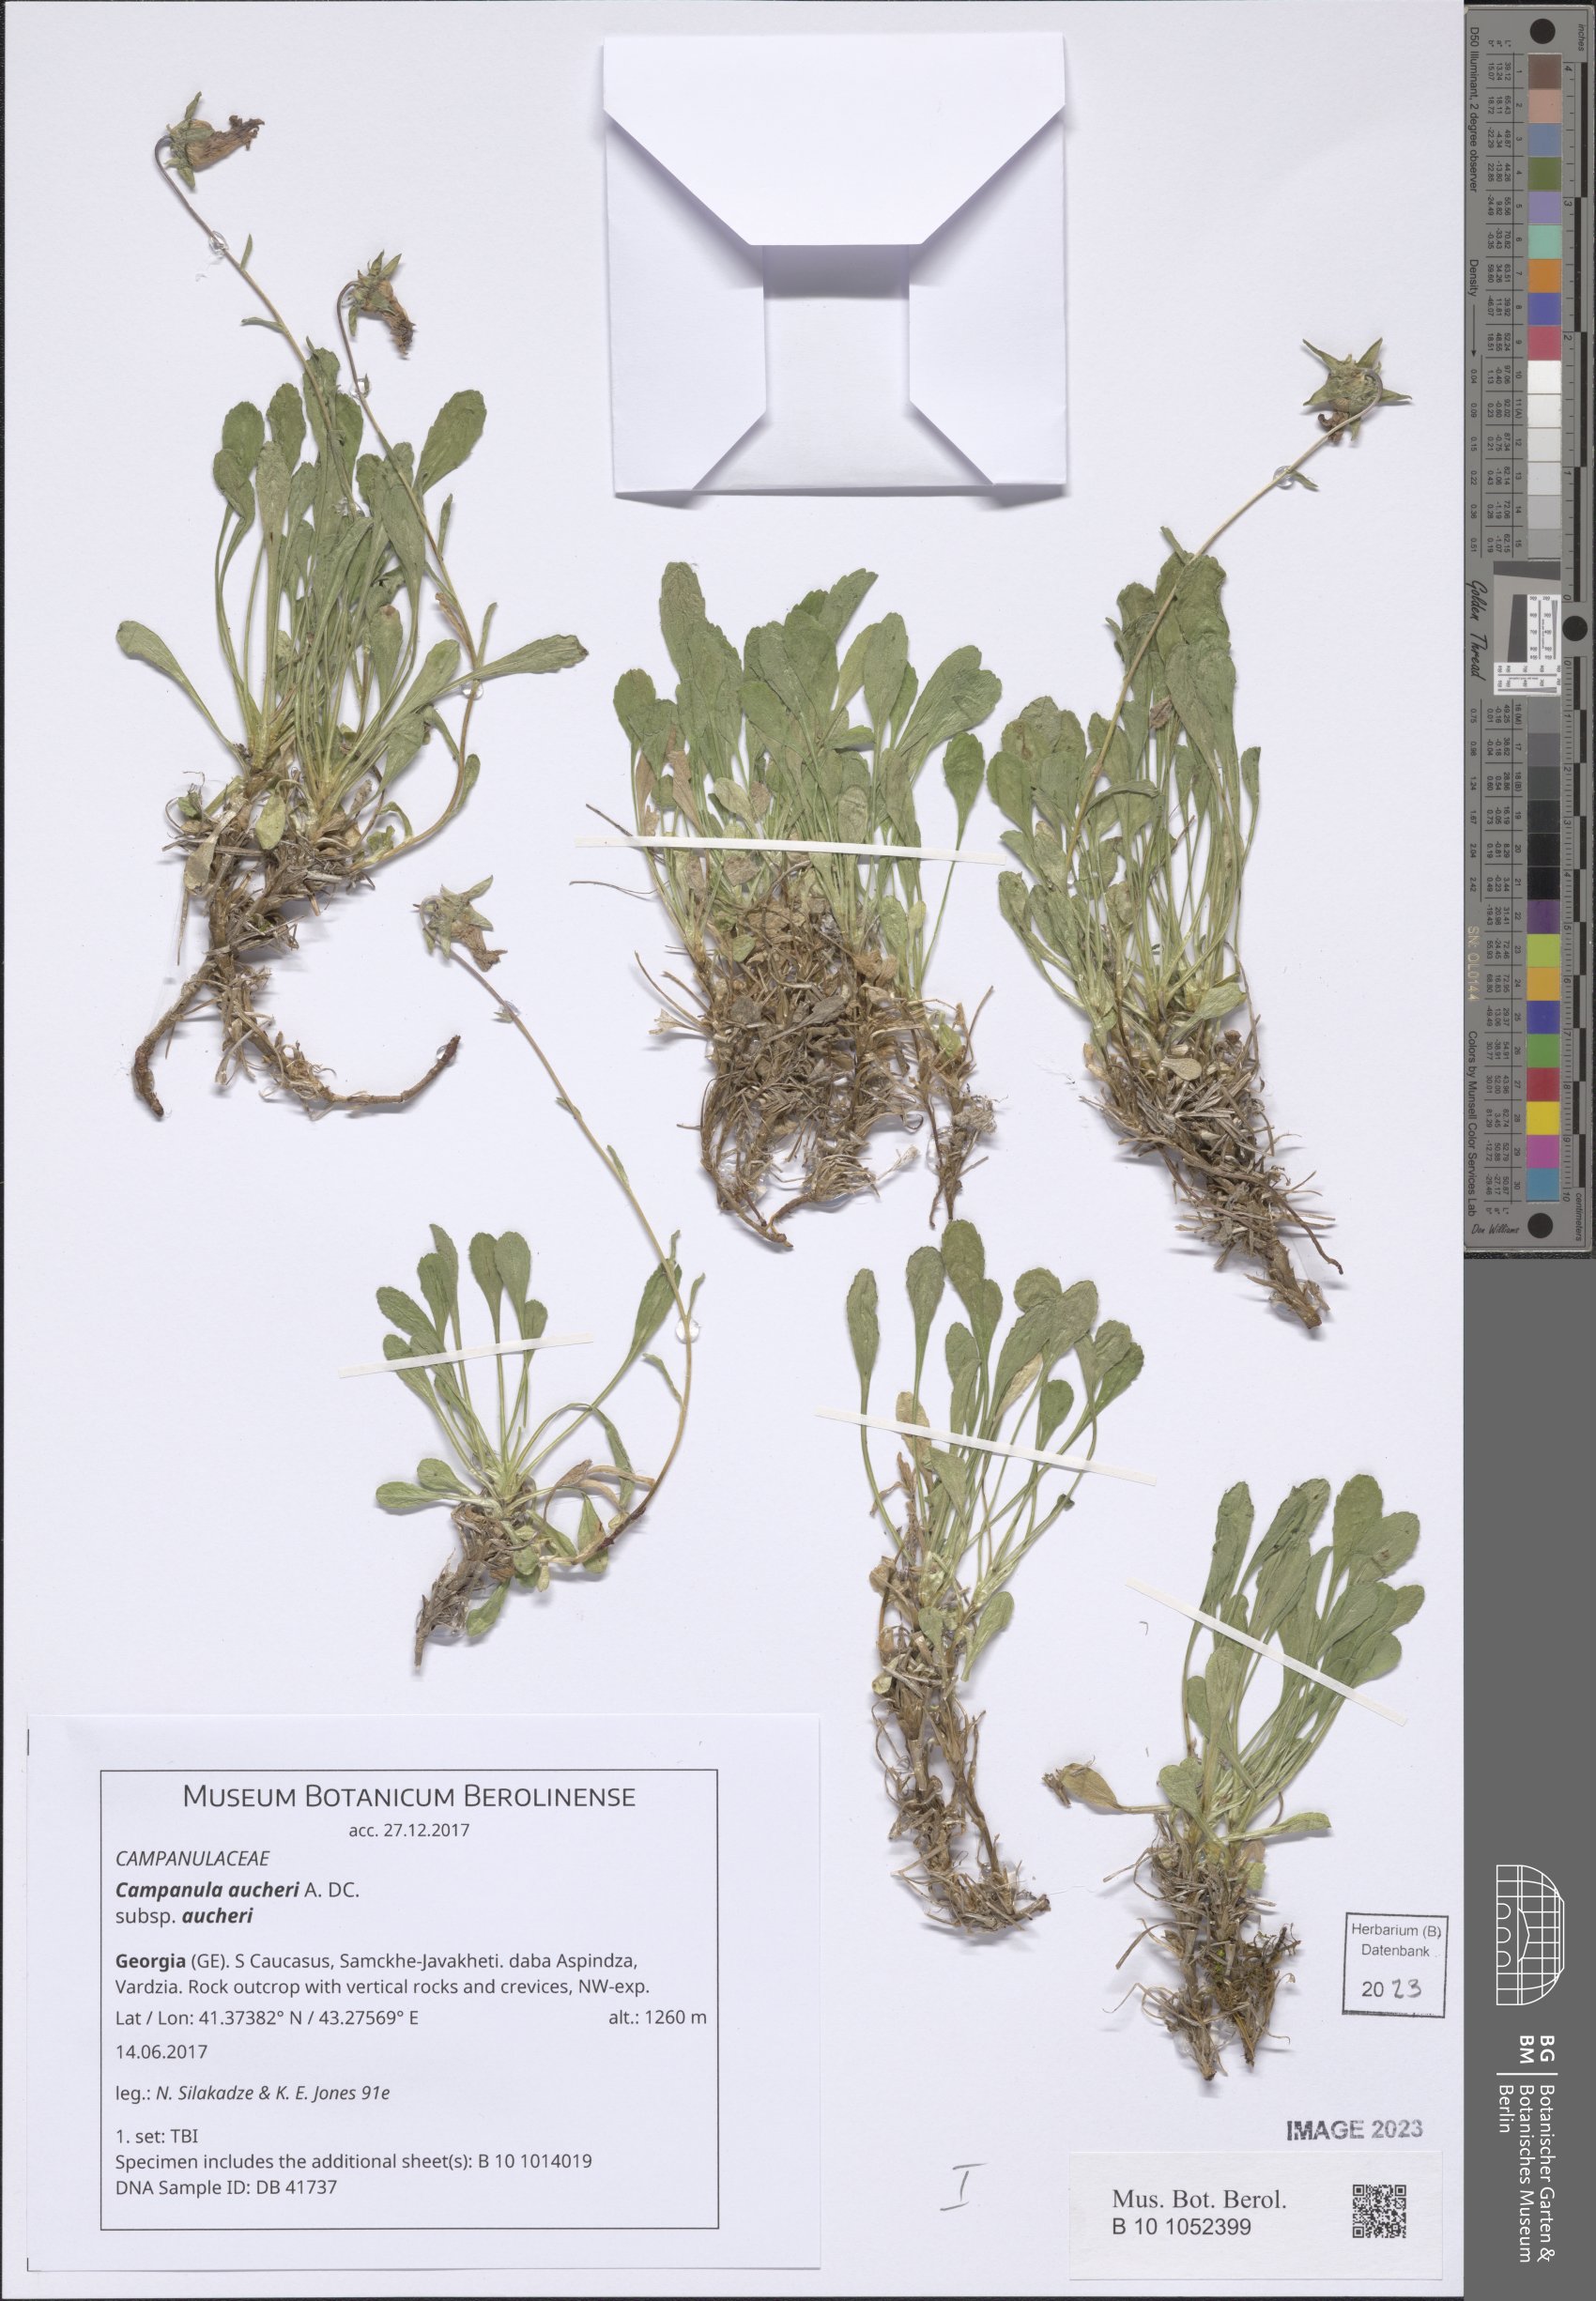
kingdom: Plantae
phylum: Tracheophyta
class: Magnoliopsida
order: Asterales
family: Campanulaceae
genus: Campanula
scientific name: Campanula saxifraga
